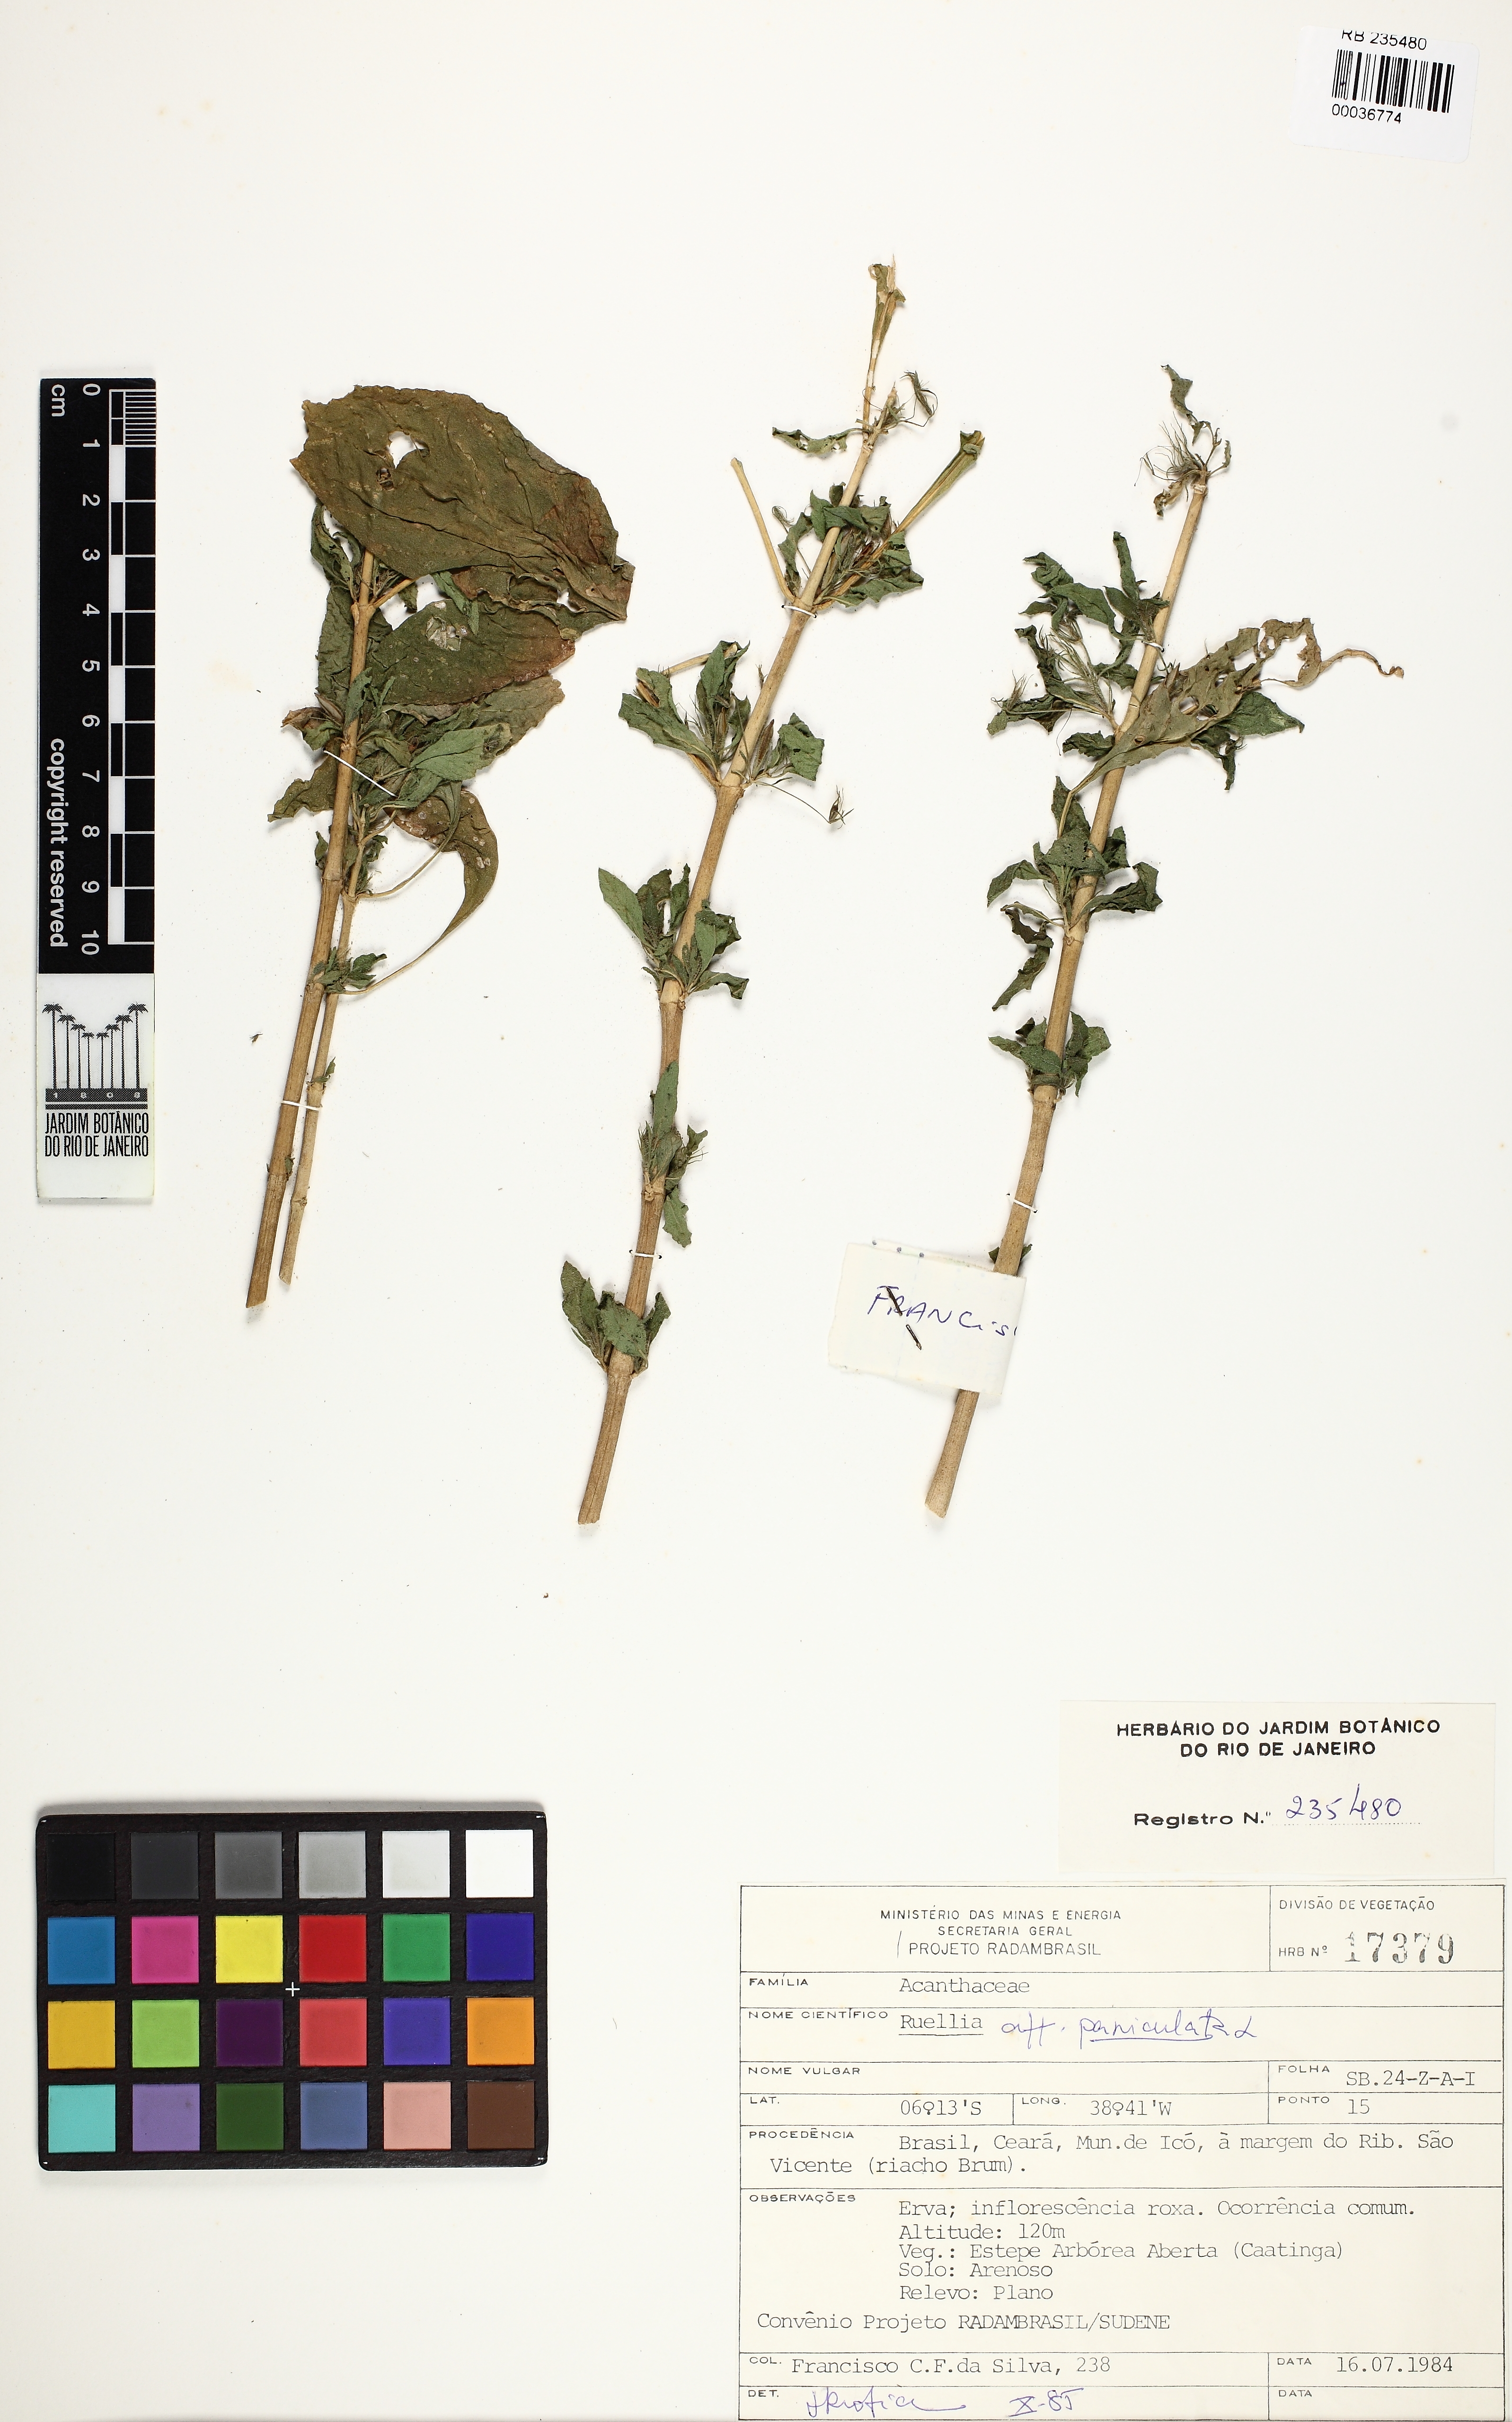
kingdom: Plantae
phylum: Tracheophyta
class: Magnoliopsida
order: Lamiales
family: Acanthaceae
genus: Ruellia
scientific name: Ruellia paniculata
